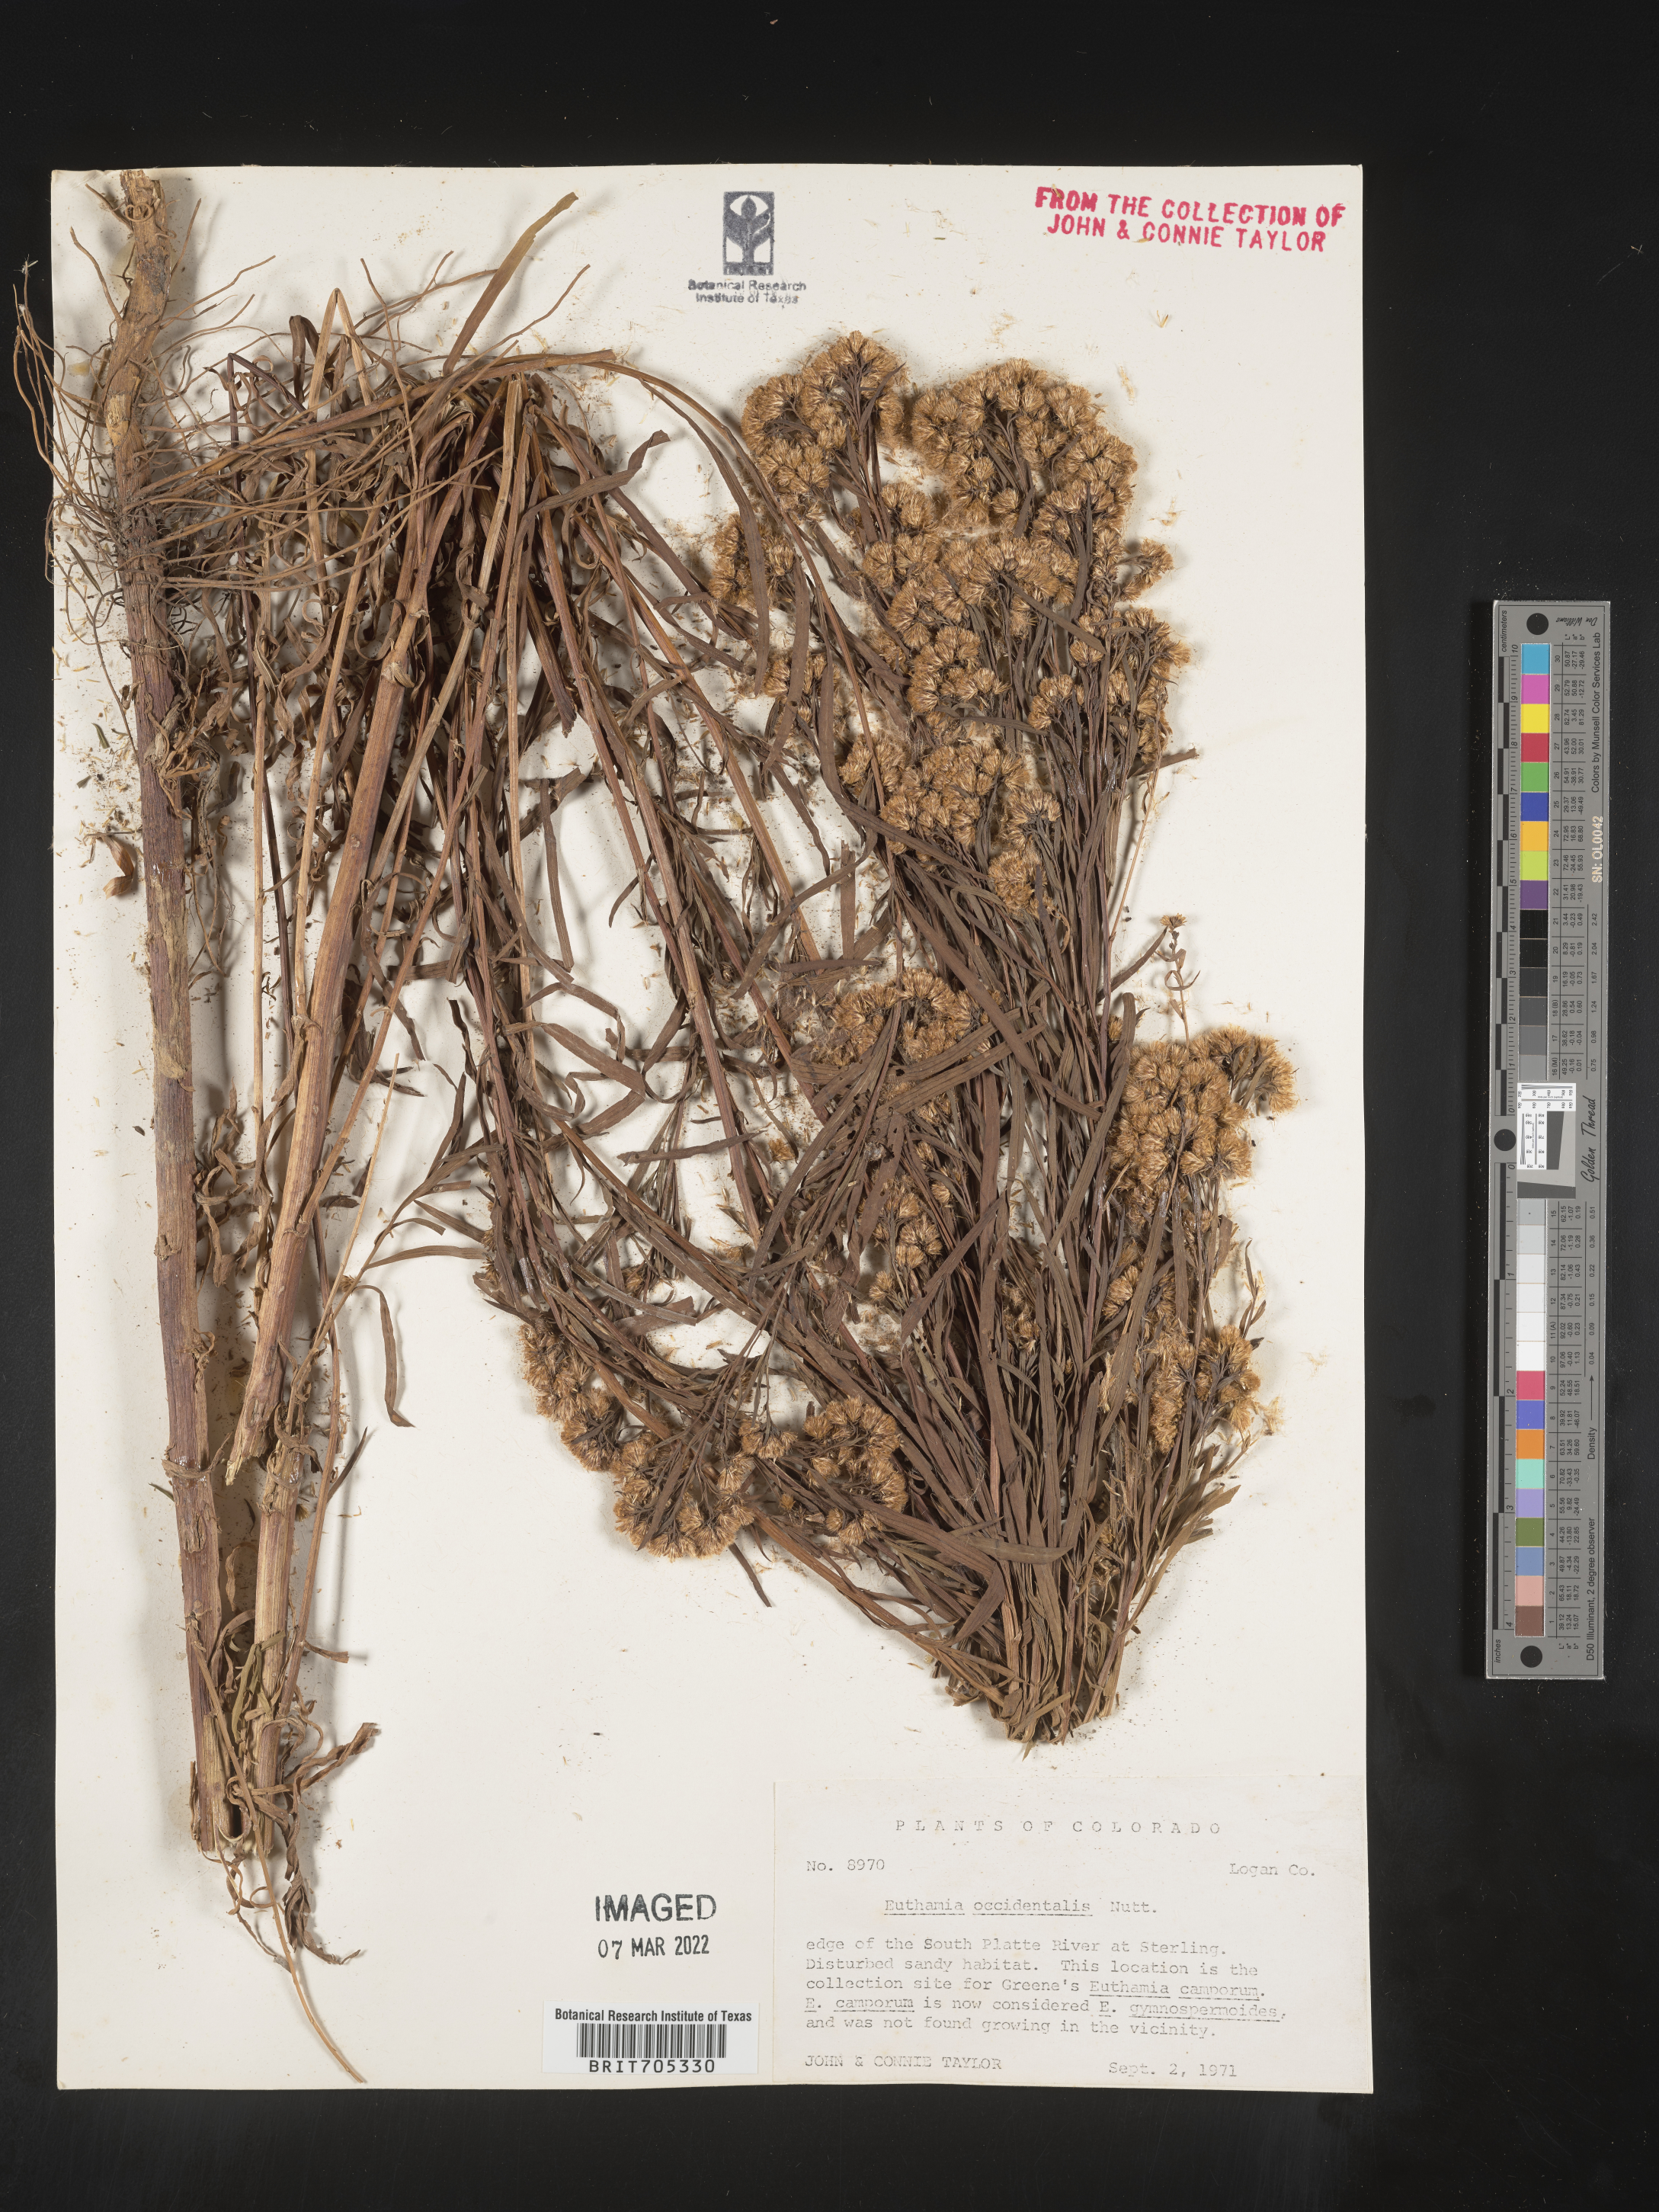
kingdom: Plantae
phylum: Tracheophyta
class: Magnoliopsida
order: Asterales
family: Asteraceae
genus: Euthamia
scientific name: Euthamia occidentalis
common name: Western goldentop
